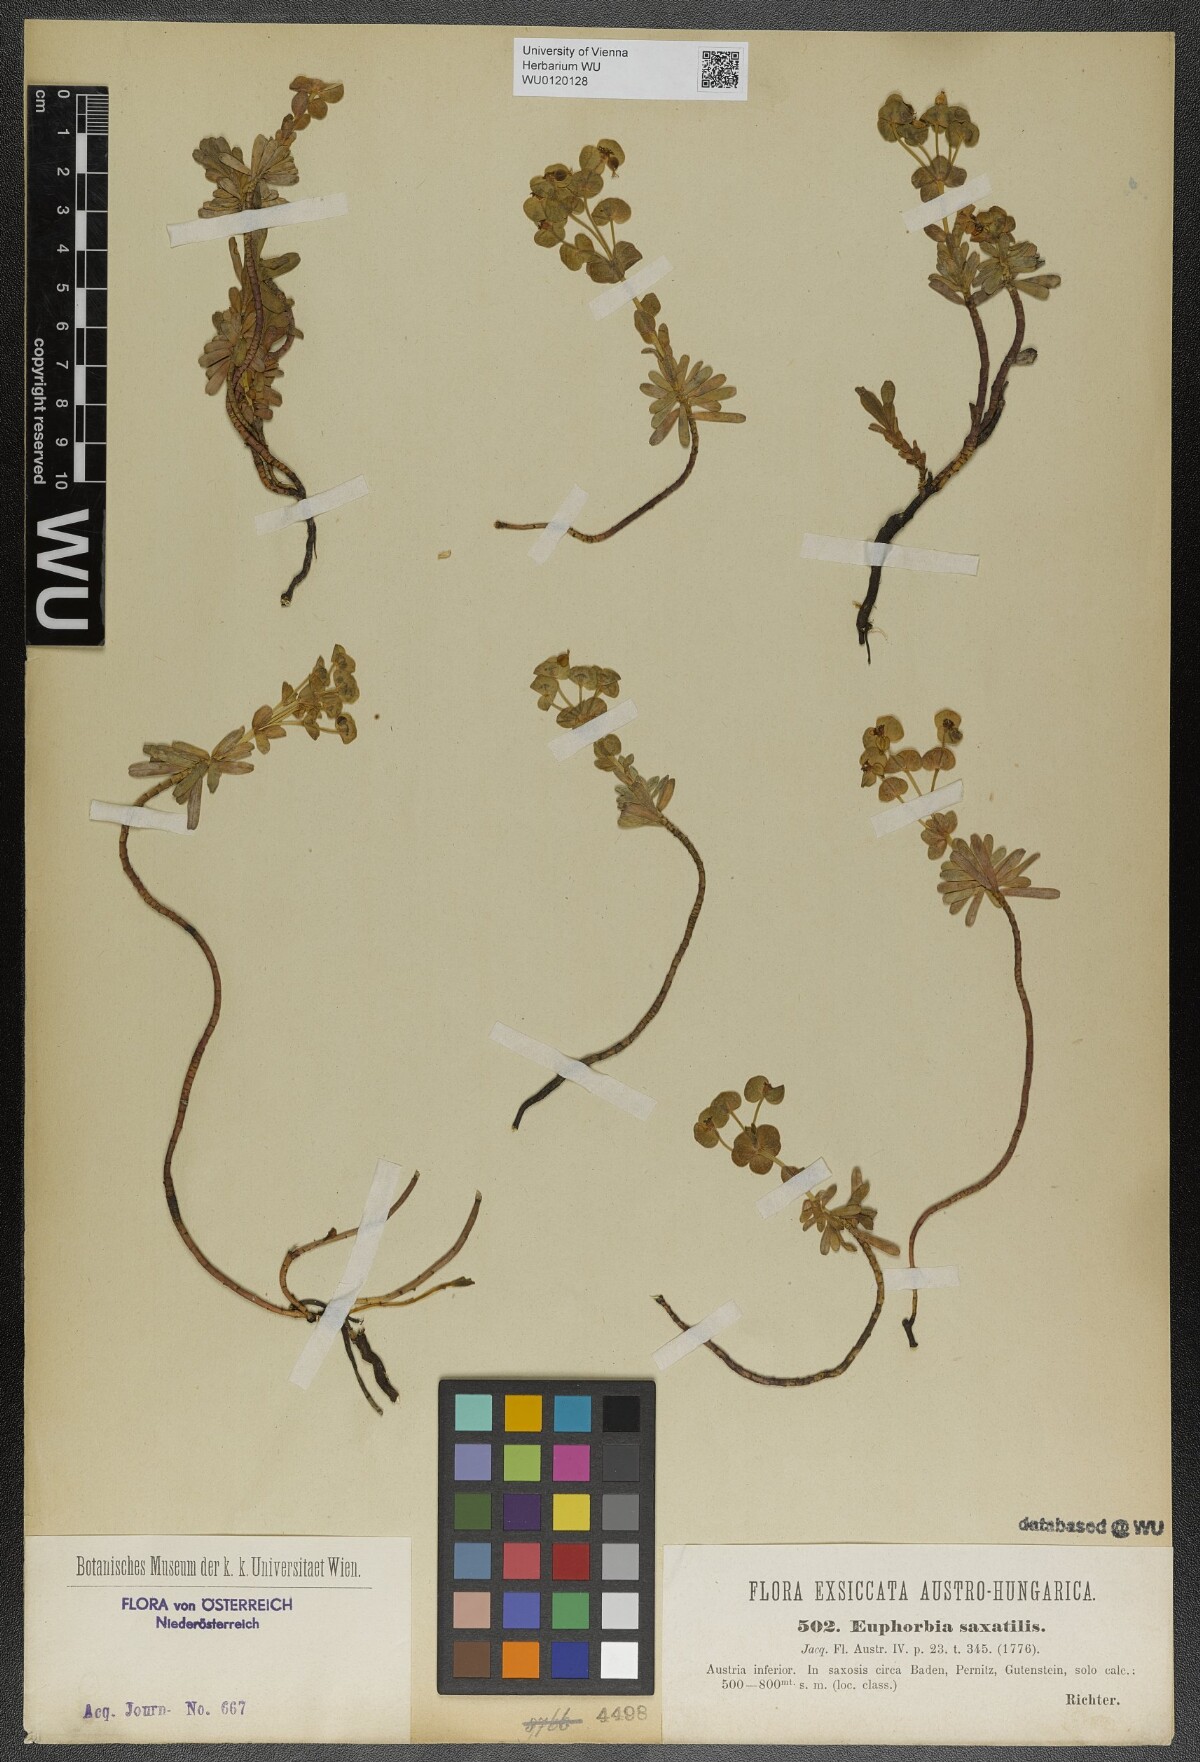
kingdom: Plantae
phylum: Tracheophyta
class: Magnoliopsida
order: Malpighiales
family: Euphorbiaceae
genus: Euphorbia
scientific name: Euphorbia saxatilis
